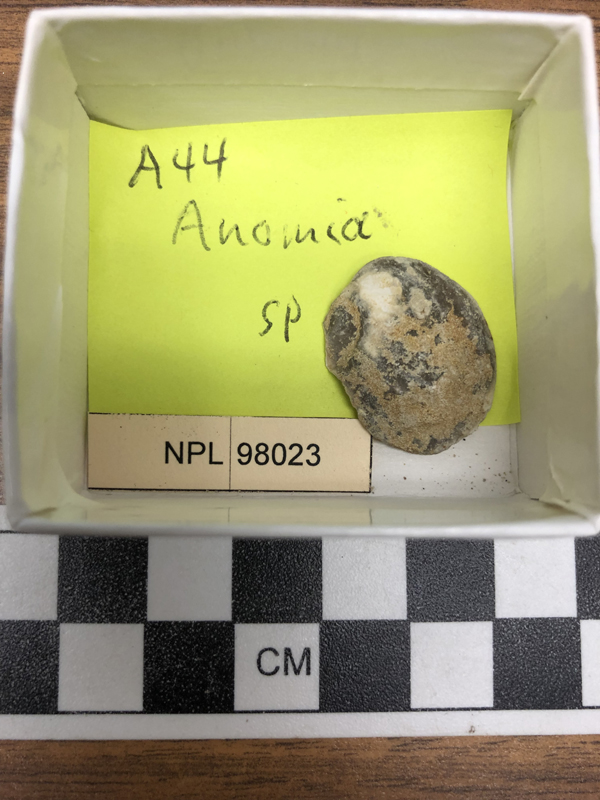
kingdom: Animalia
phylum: Mollusca
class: Bivalvia
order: Pectinida
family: Anomiidae
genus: Anomia
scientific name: Anomia
